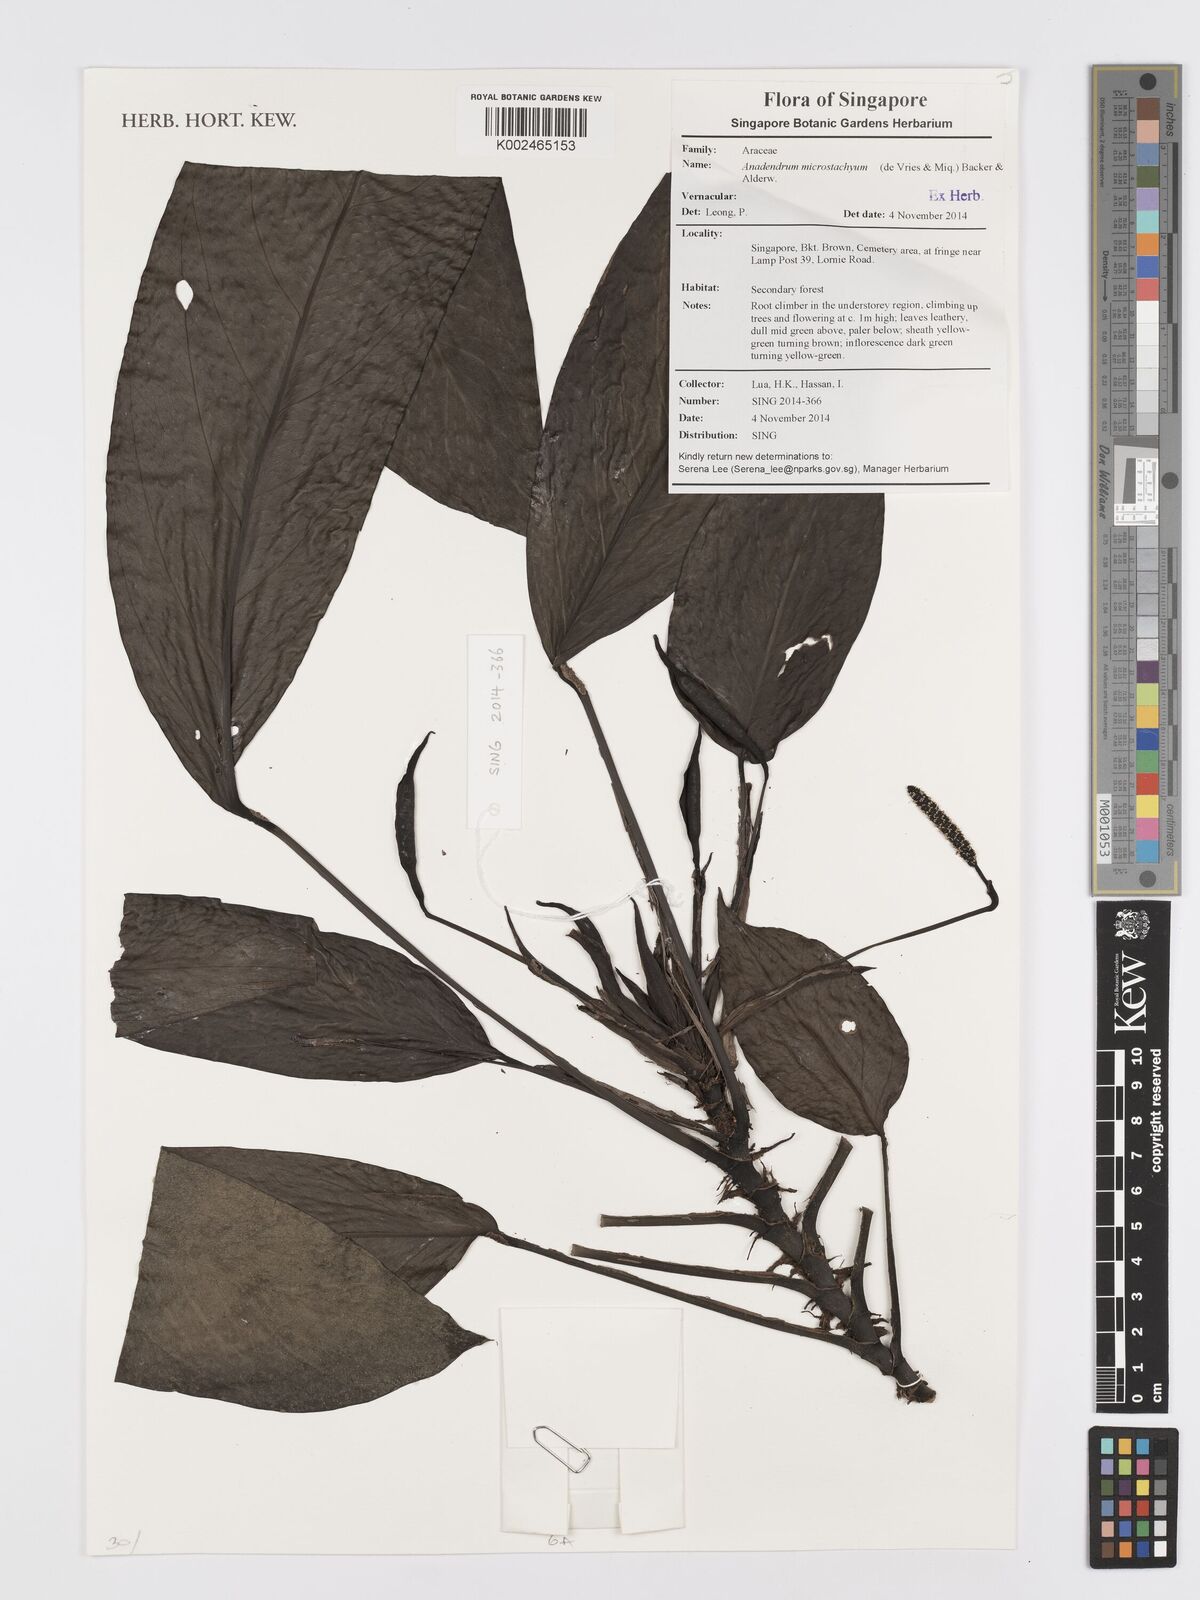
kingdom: Plantae
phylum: Tracheophyta
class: Liliopsida
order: Alismatales
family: Araceae
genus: Anadendrum
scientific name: Anadendrum microstachyum
